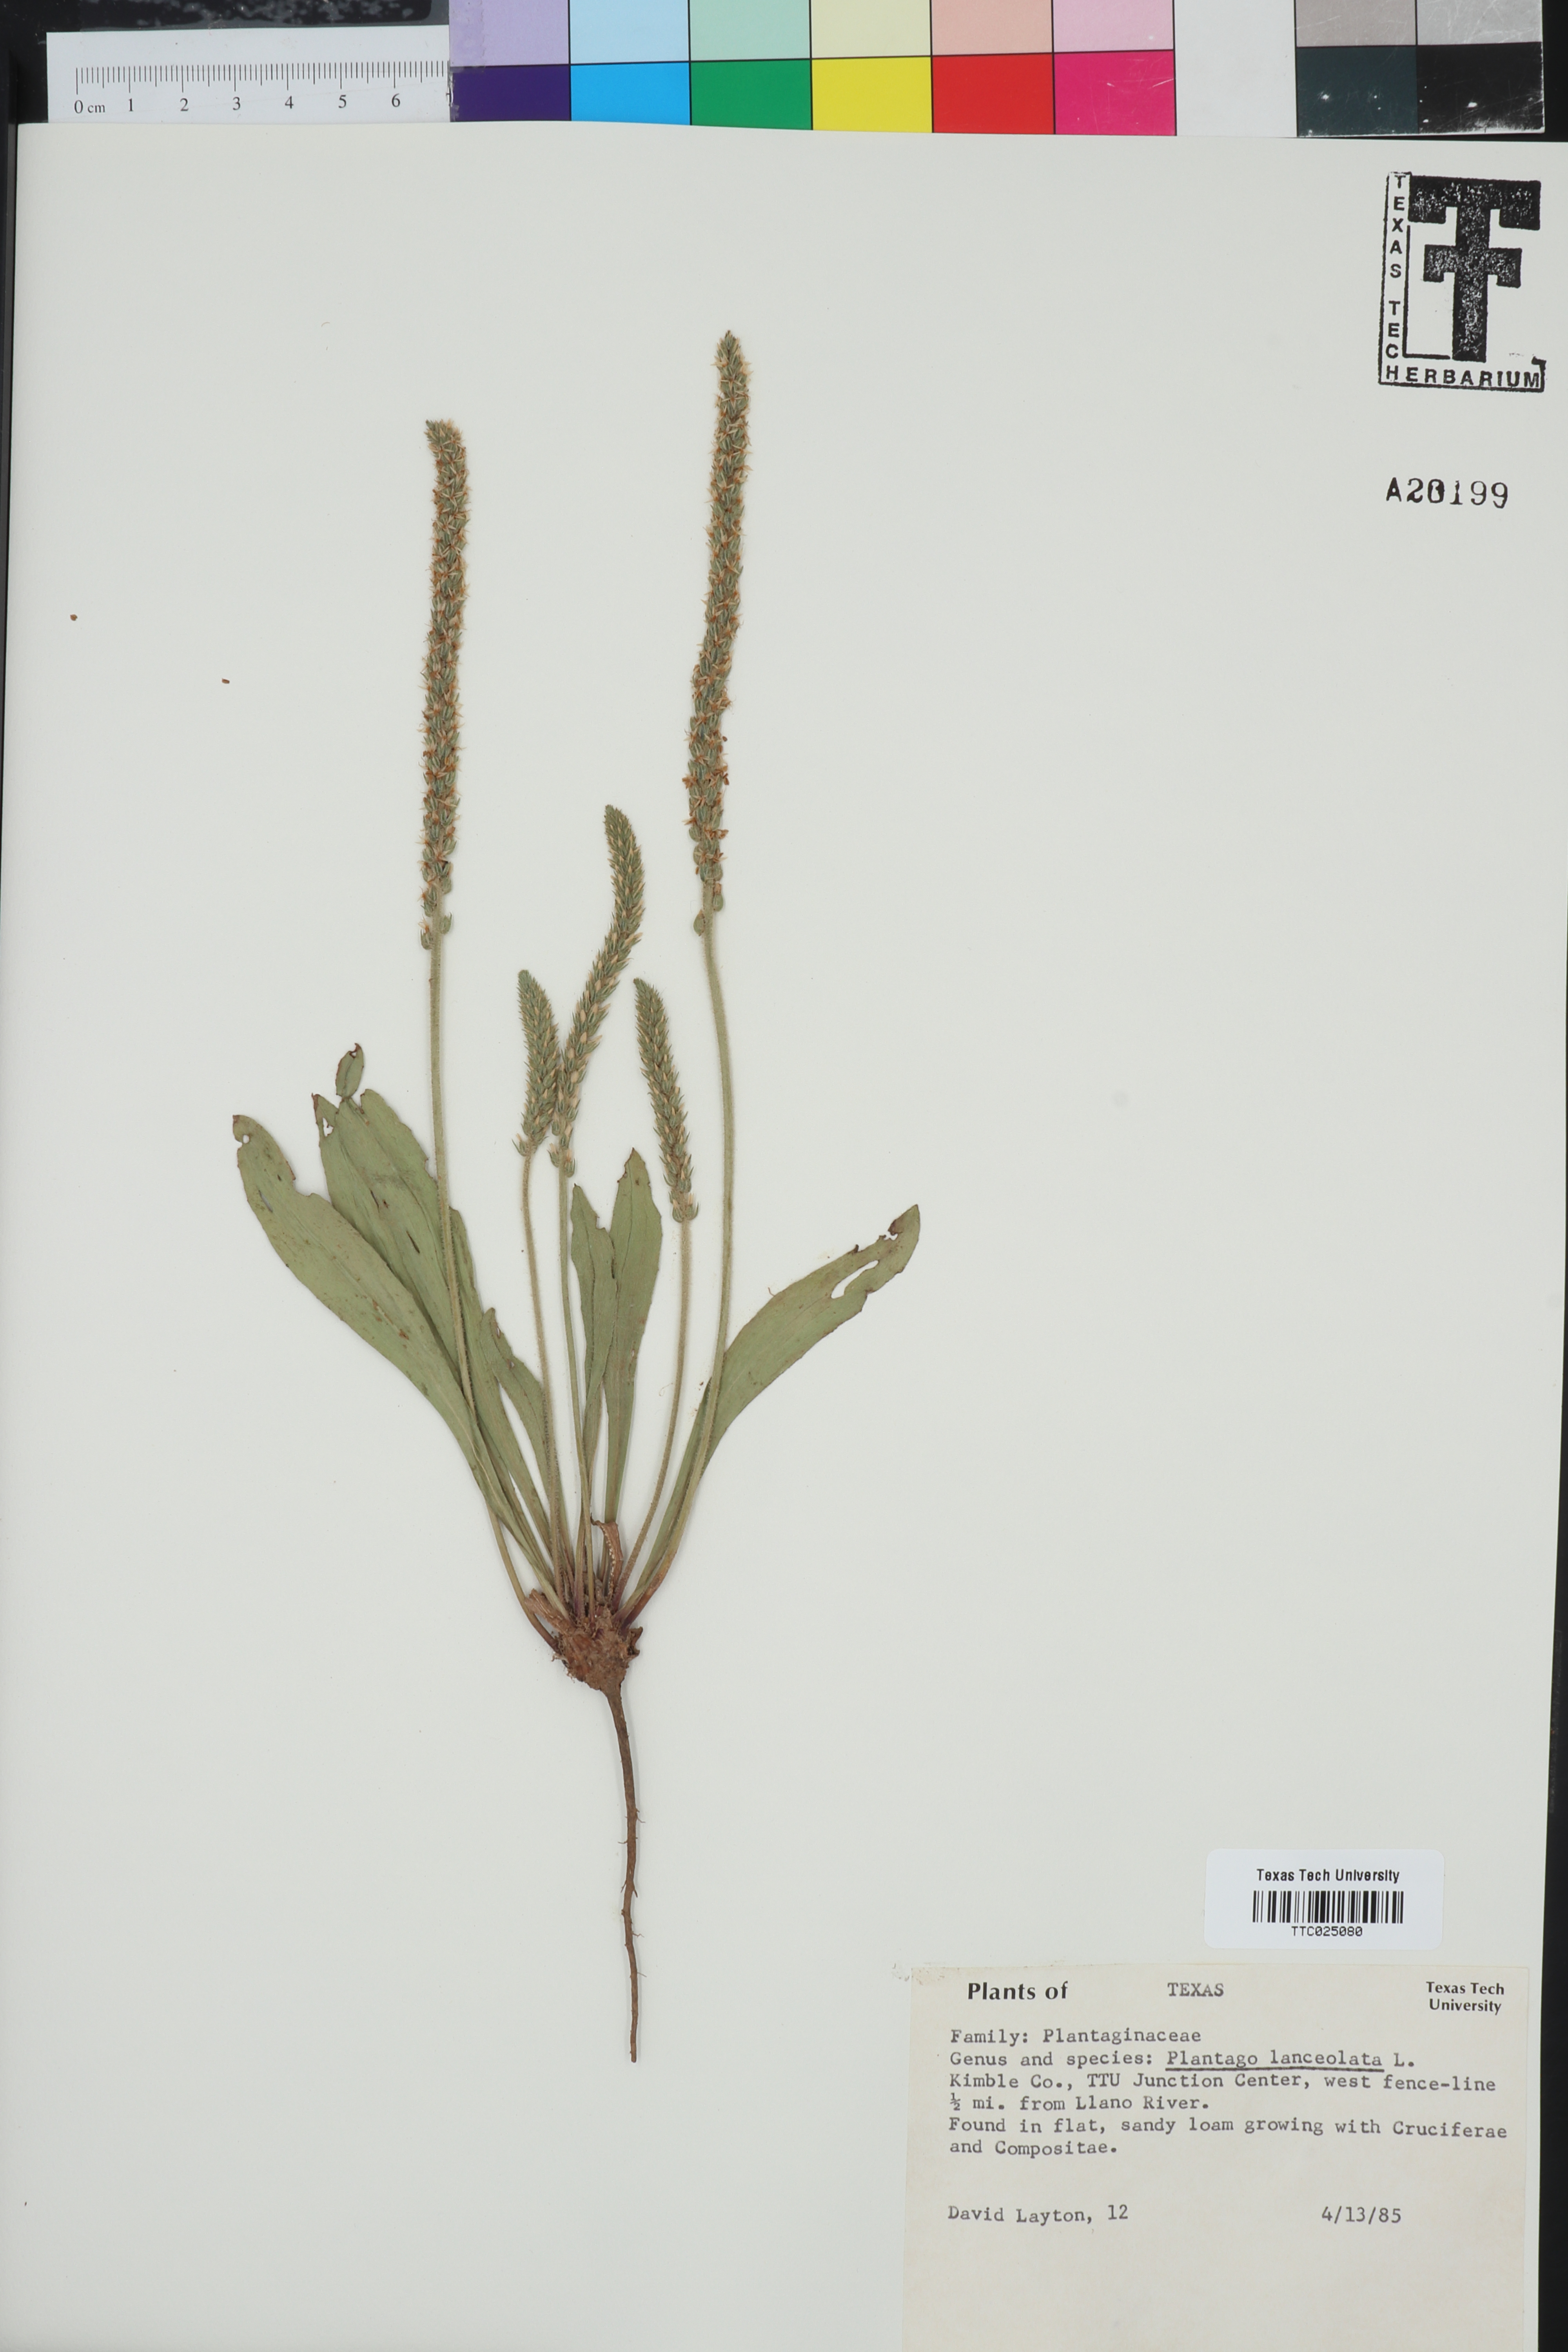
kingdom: Plantae
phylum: Tracheophyta
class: Magnoliopsida
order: Lamiales
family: Plantaginaceae
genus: Plantago
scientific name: Plantago lanceolata
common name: Ribwort plantain
